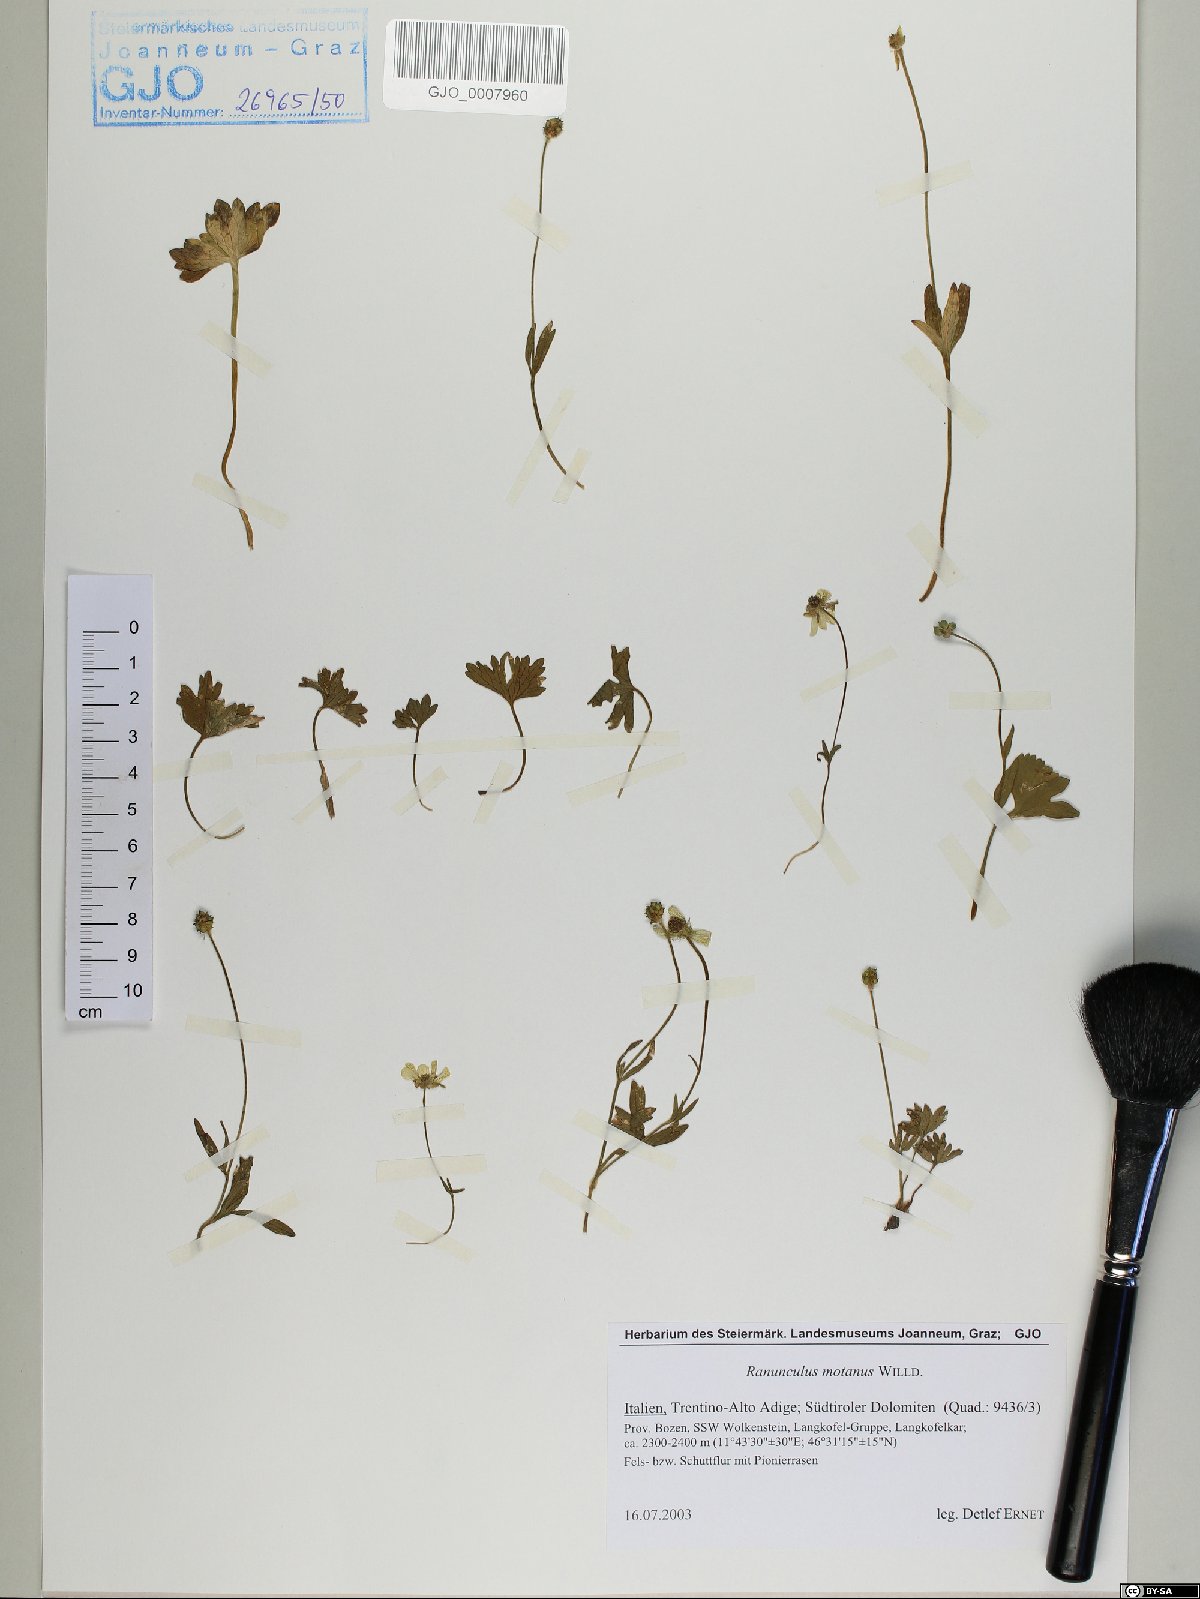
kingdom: Plantae
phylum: Tracheophyta
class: Magnoliopsida
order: Ranunculales
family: Ranunculaceae
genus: Ranunculus
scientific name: Ranunculus montanus
